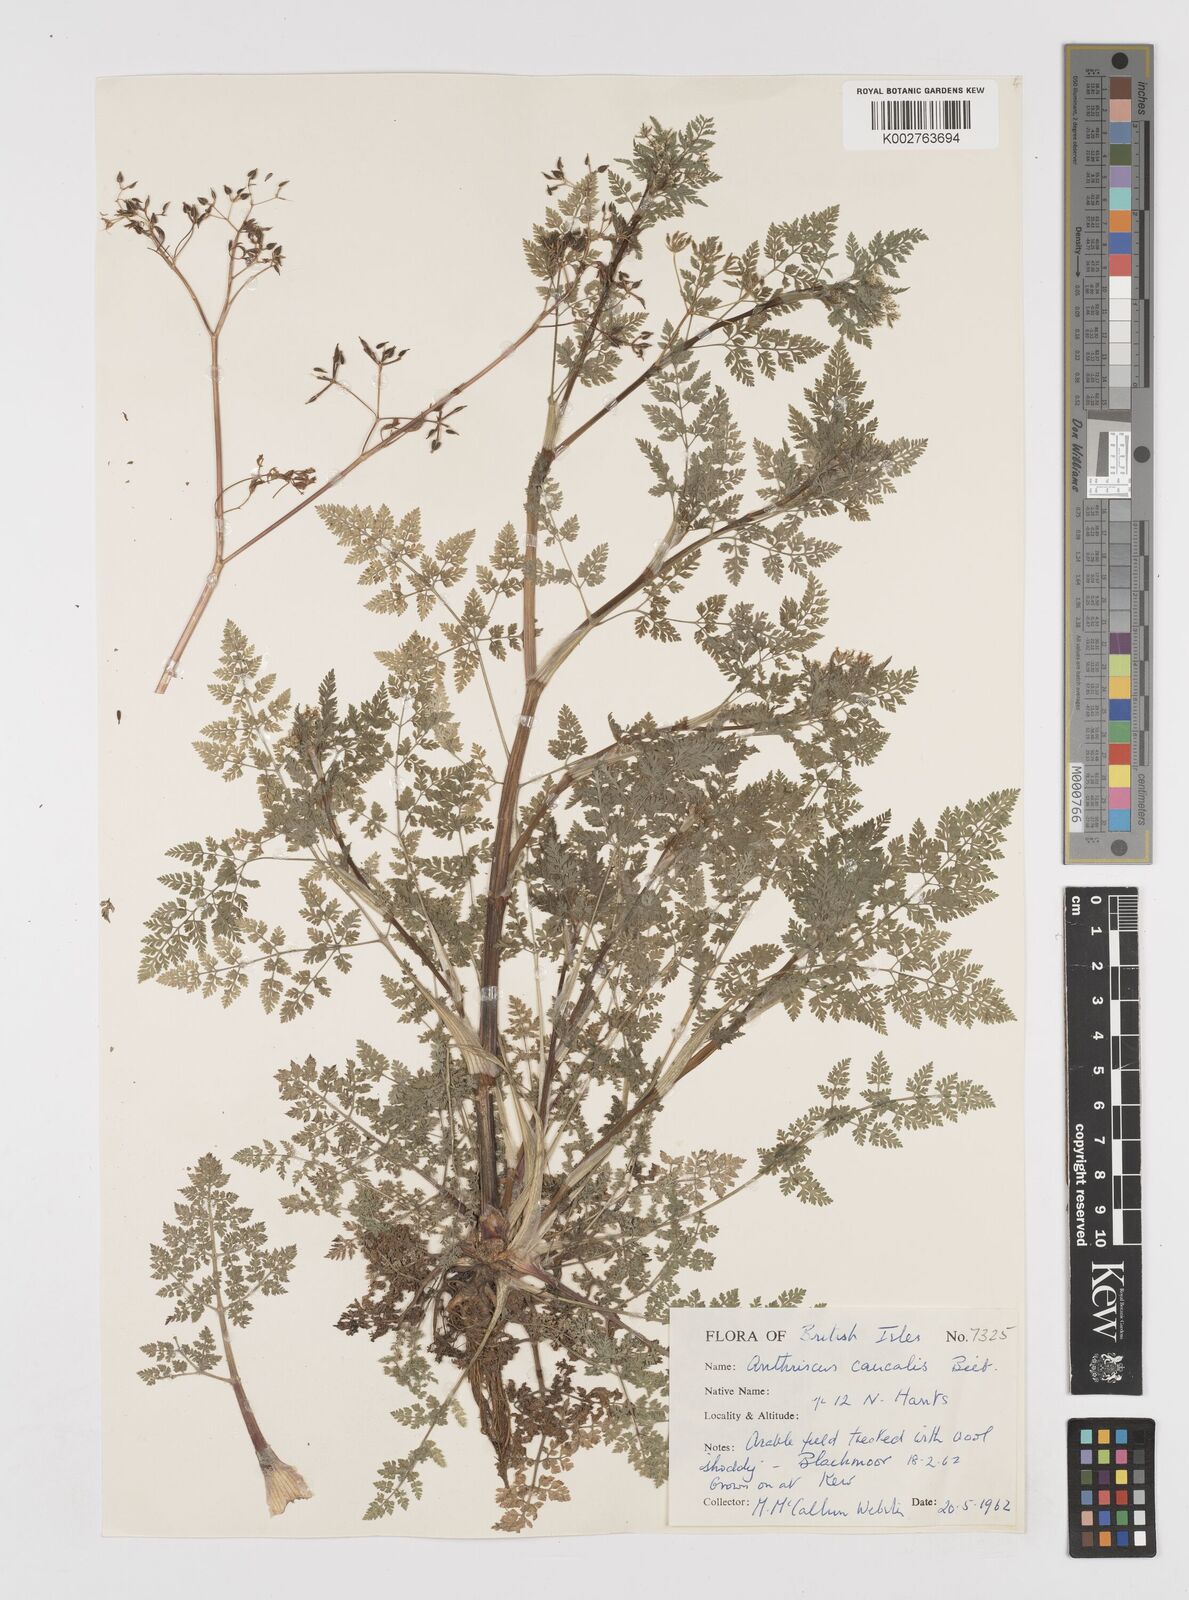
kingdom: Plantae
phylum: Tracheophyta
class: Magnoliopsida
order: Apiales
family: Apiaceae
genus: Anthriscus
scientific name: Anthriscus caucalis
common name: Bur chervil
